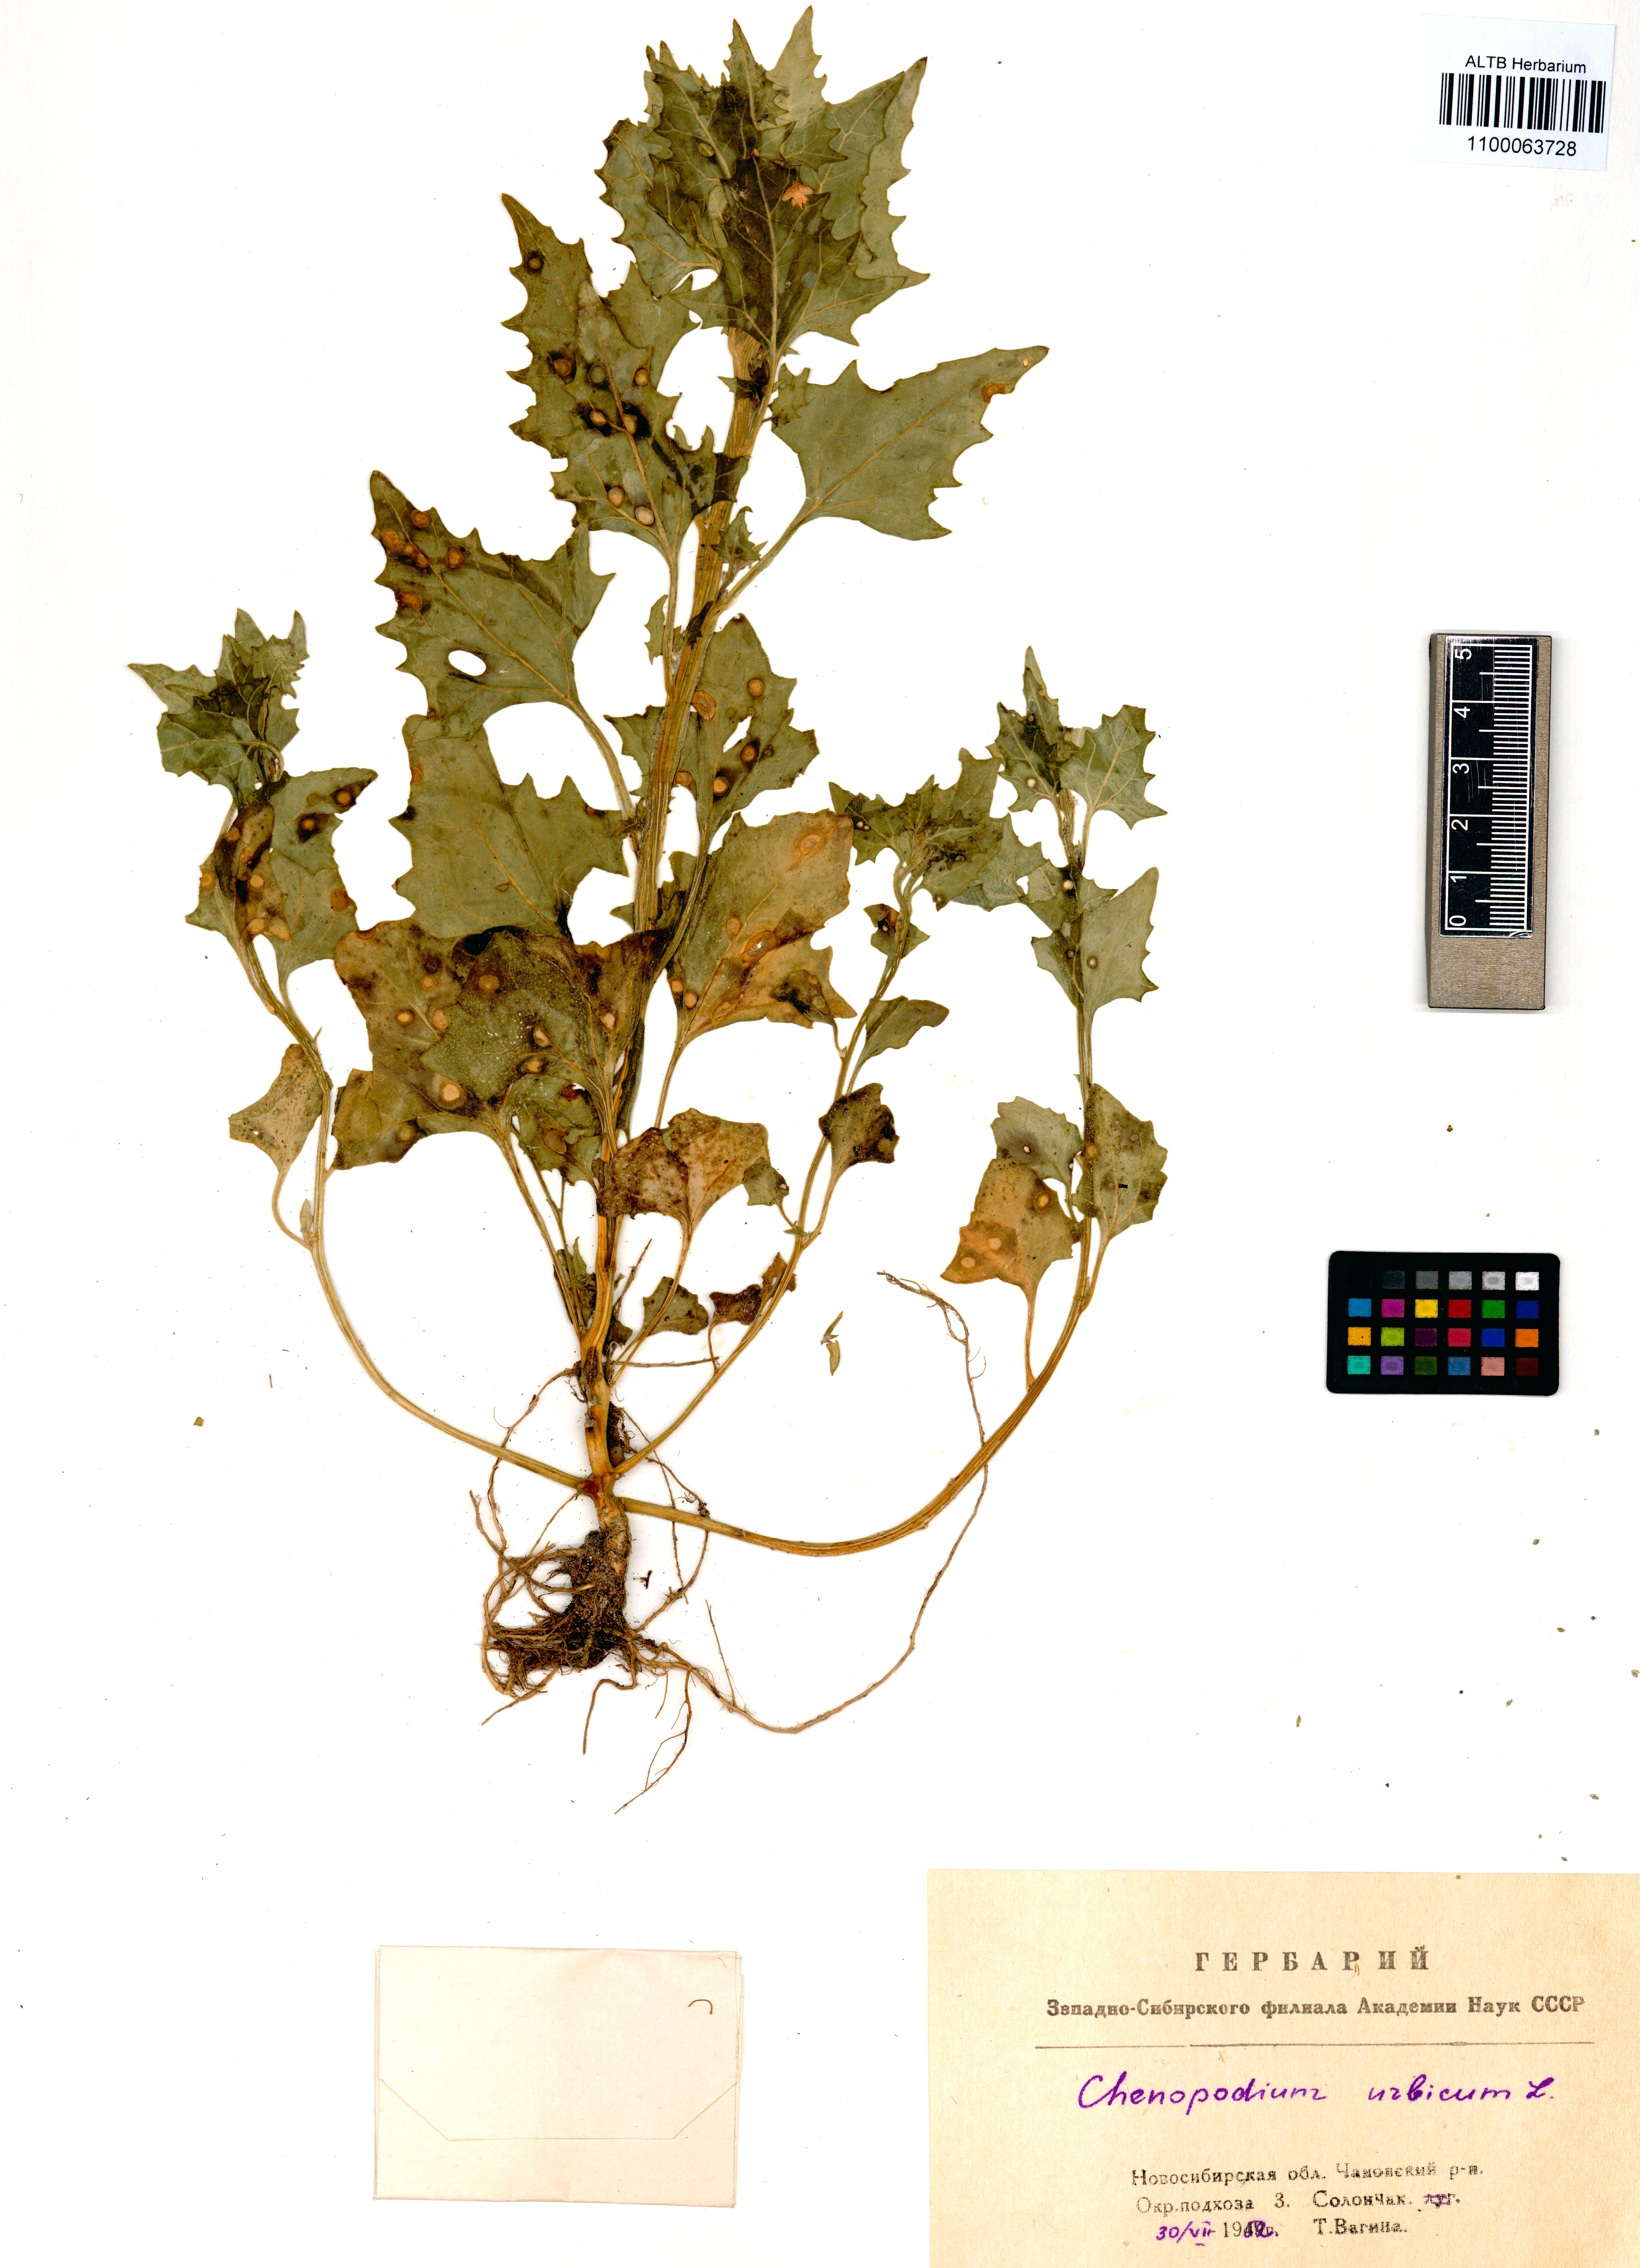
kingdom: Plantae
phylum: Tracheophyta
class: Magnoliopsida
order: Caryophyllales
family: Amaranthaceae
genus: Oxybasis
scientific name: Oxybasis urbica
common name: City goosefoot
